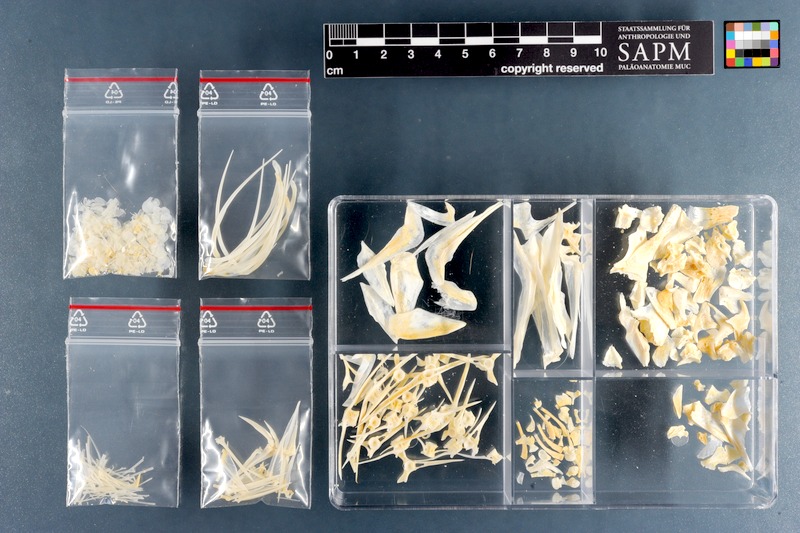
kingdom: Animalia
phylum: Chordata
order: Perciformes
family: Sparidae
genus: Gymnocrotaphus
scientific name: Gymnocrotaphus curvidens
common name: Janbruin
